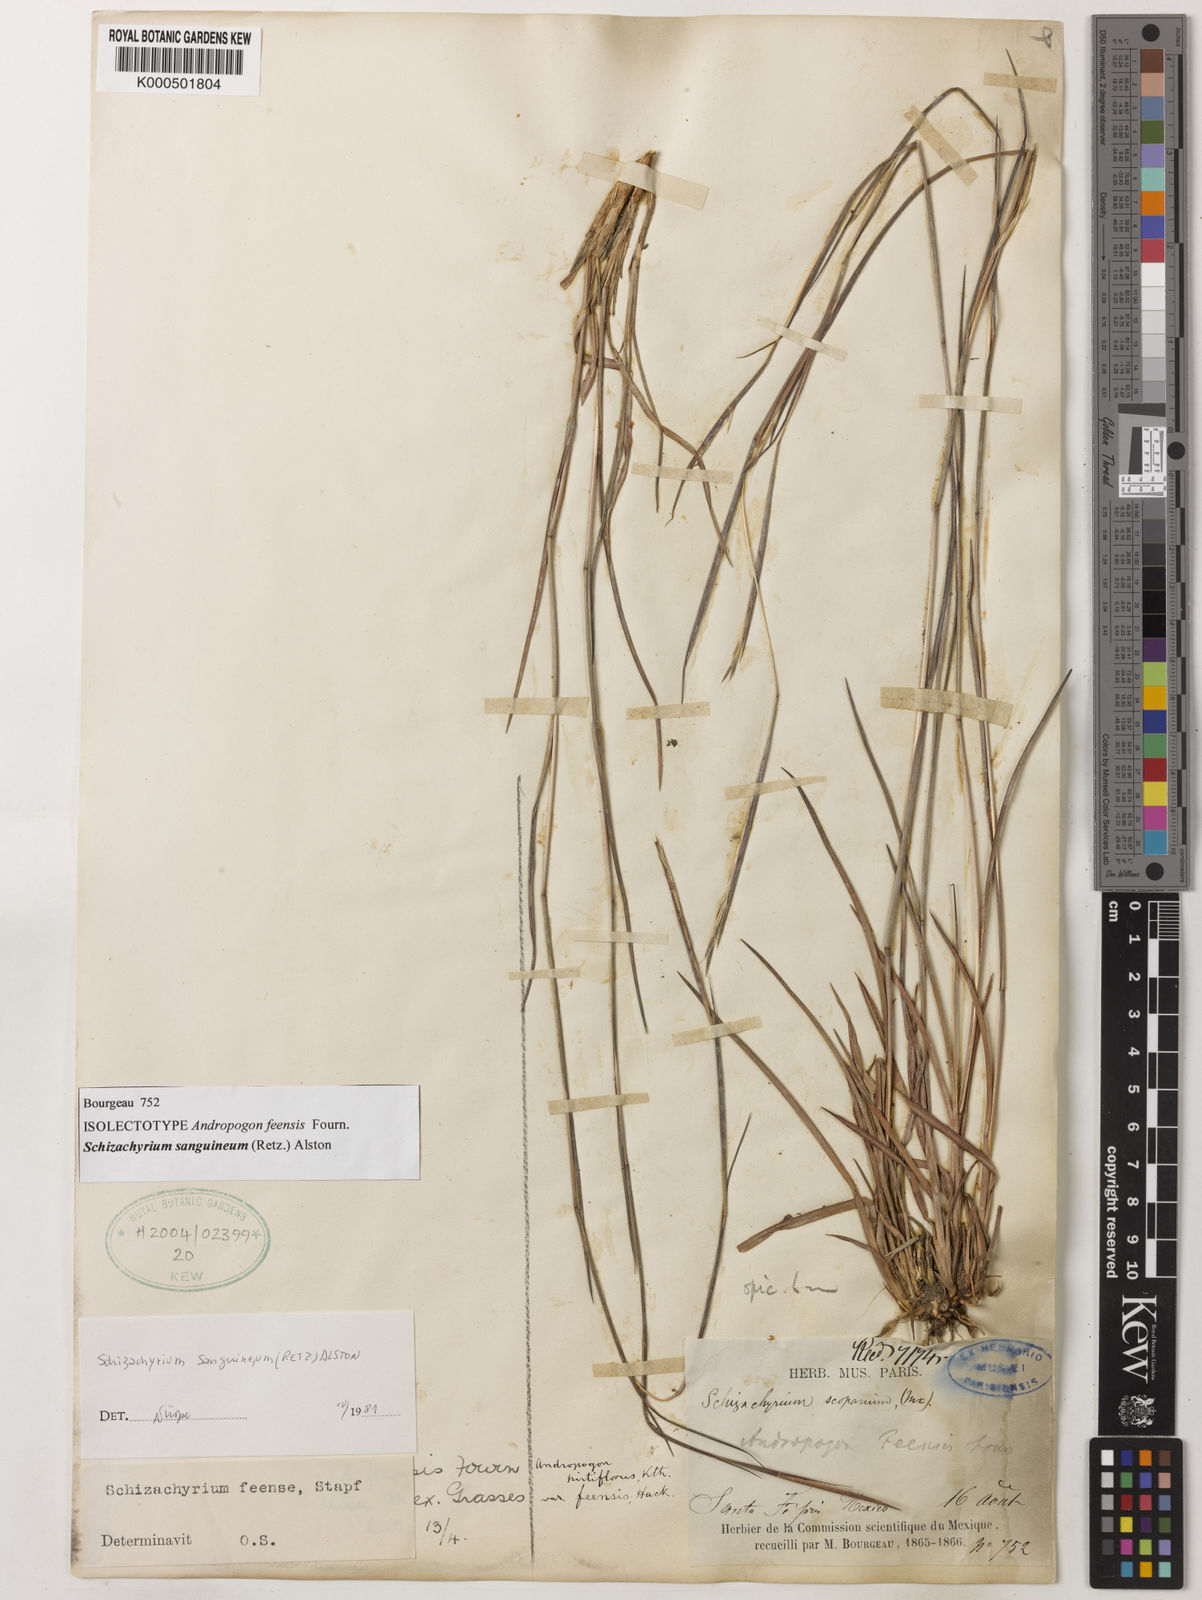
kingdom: Plantae
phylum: Tracheophyta
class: Liliopsida
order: Poales
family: Poaceae
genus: Schizachyrium
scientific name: Schizachyrium sanguineum
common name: Crimson bluestem
